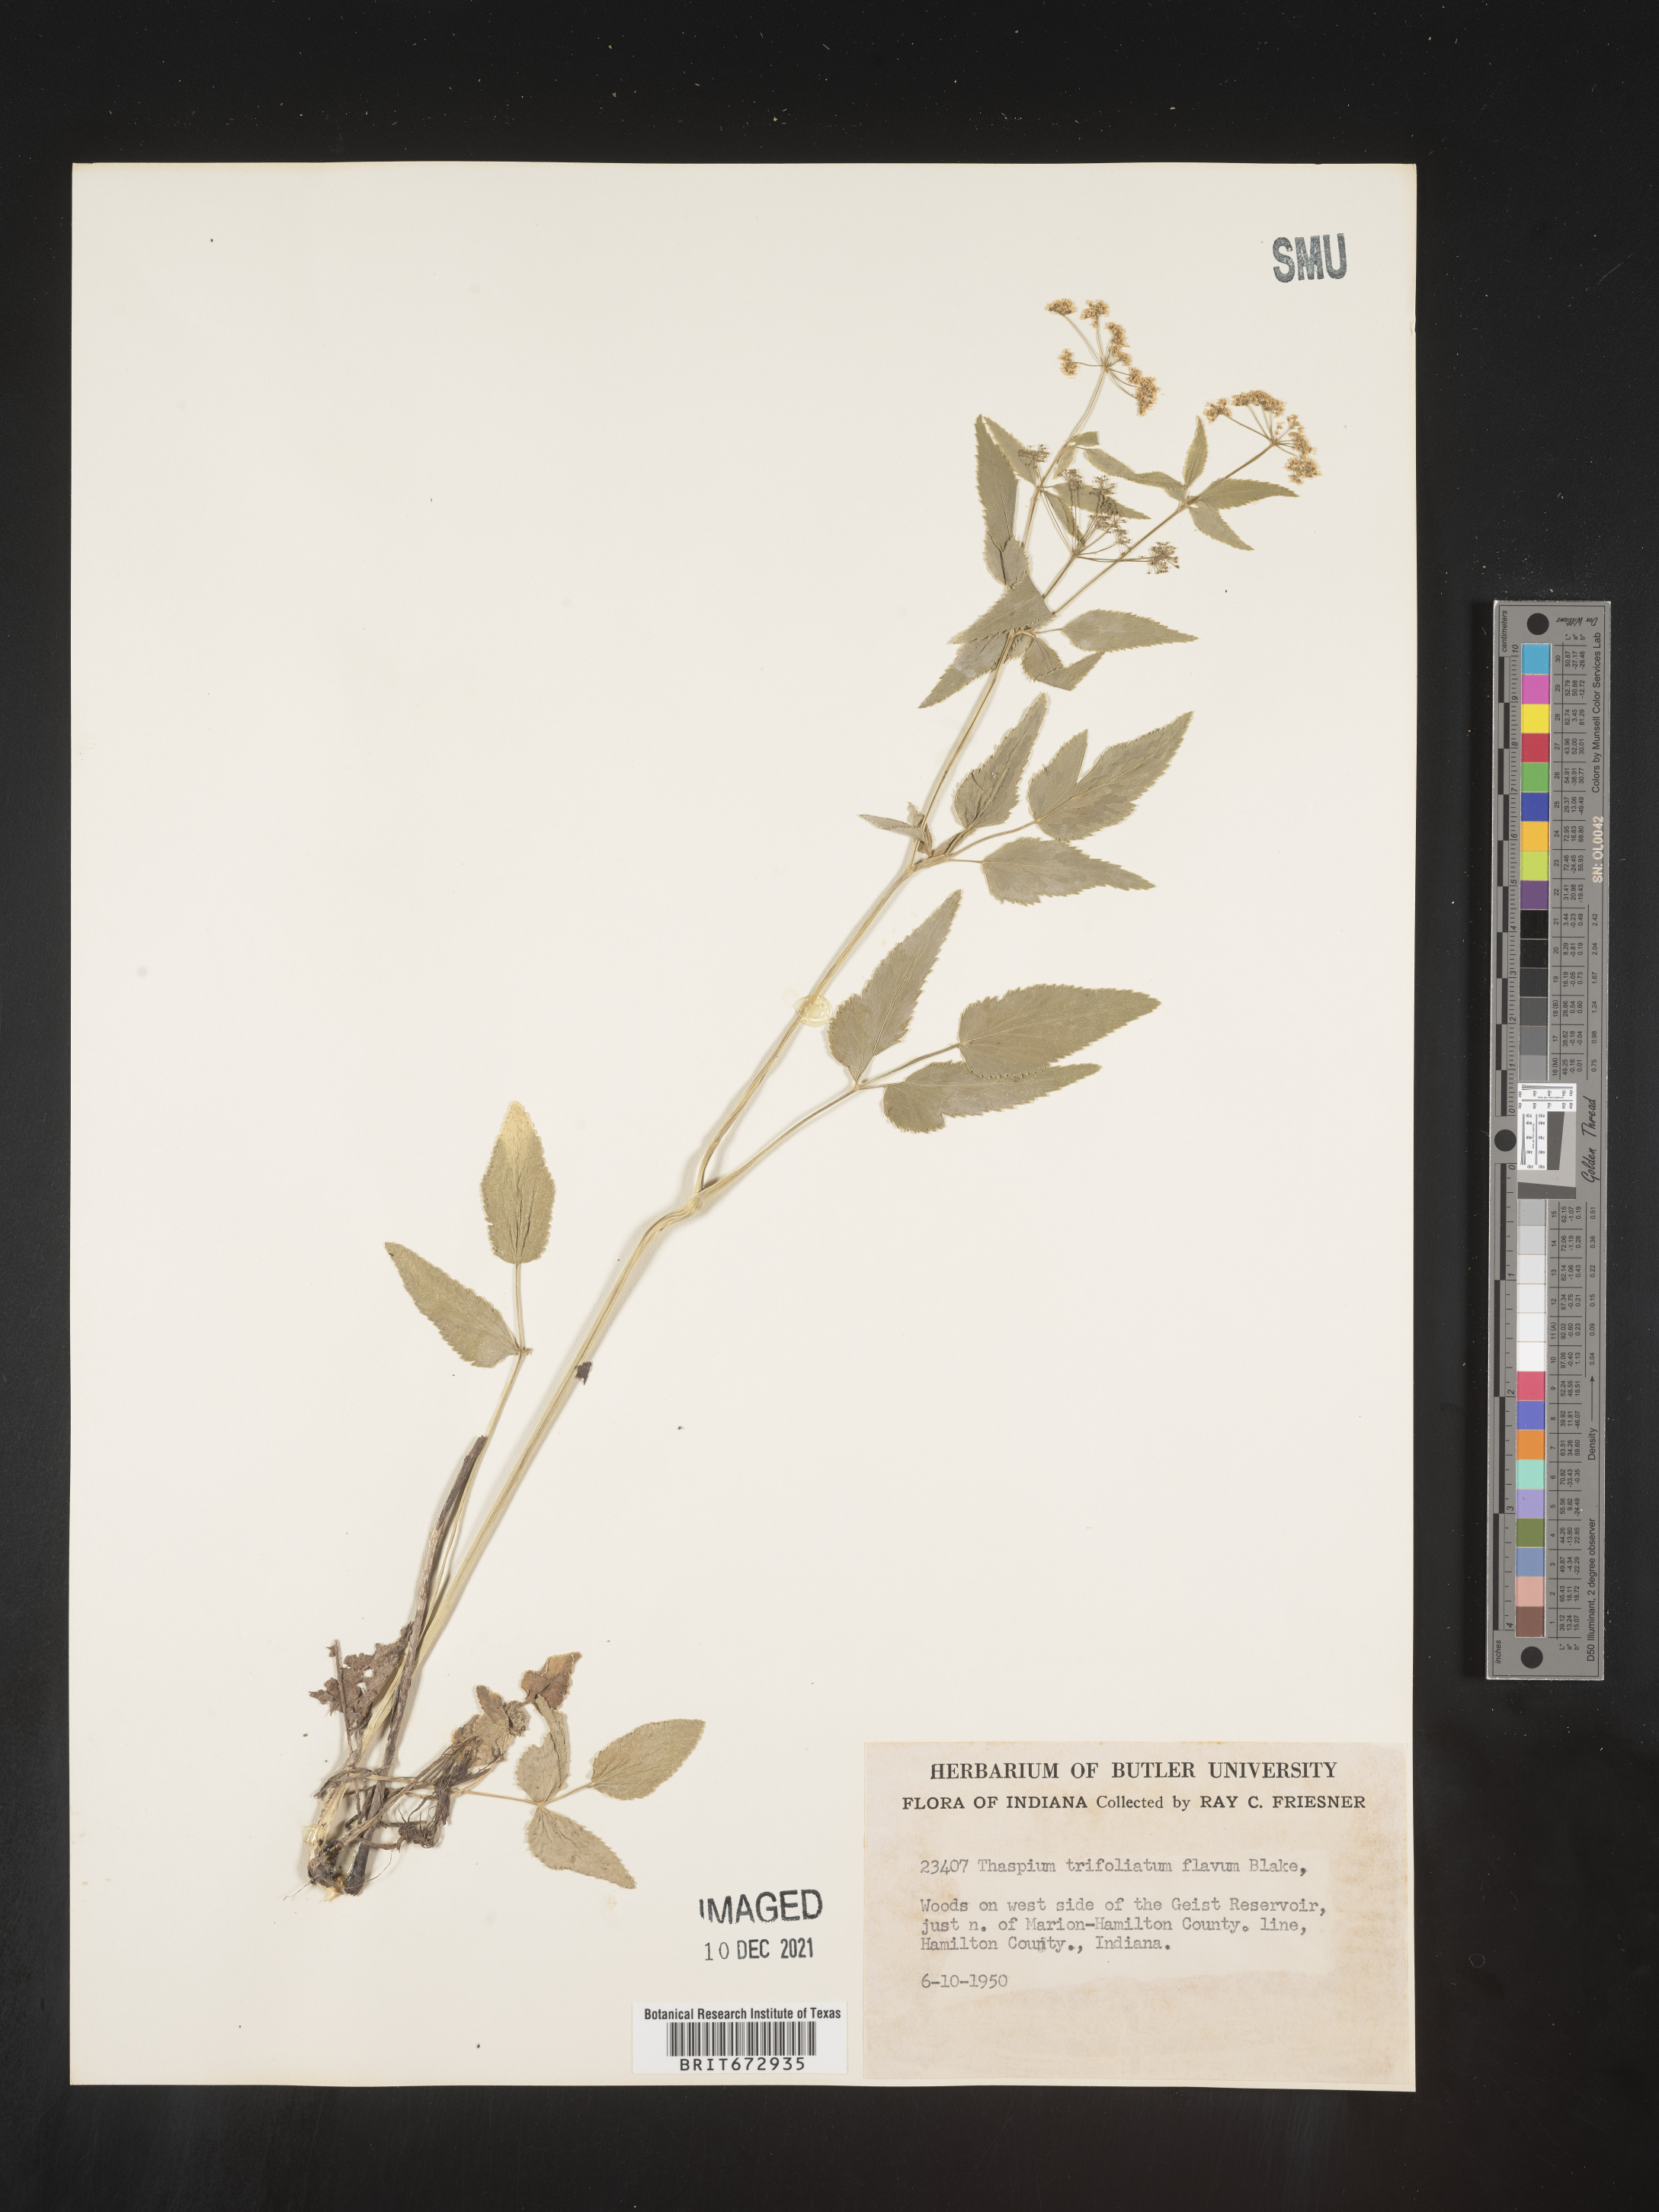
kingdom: Plantae
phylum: Tracheophyta
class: Magnoliopsida
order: Apiales
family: Apiaceae
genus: Thaspium
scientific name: Thaspium
